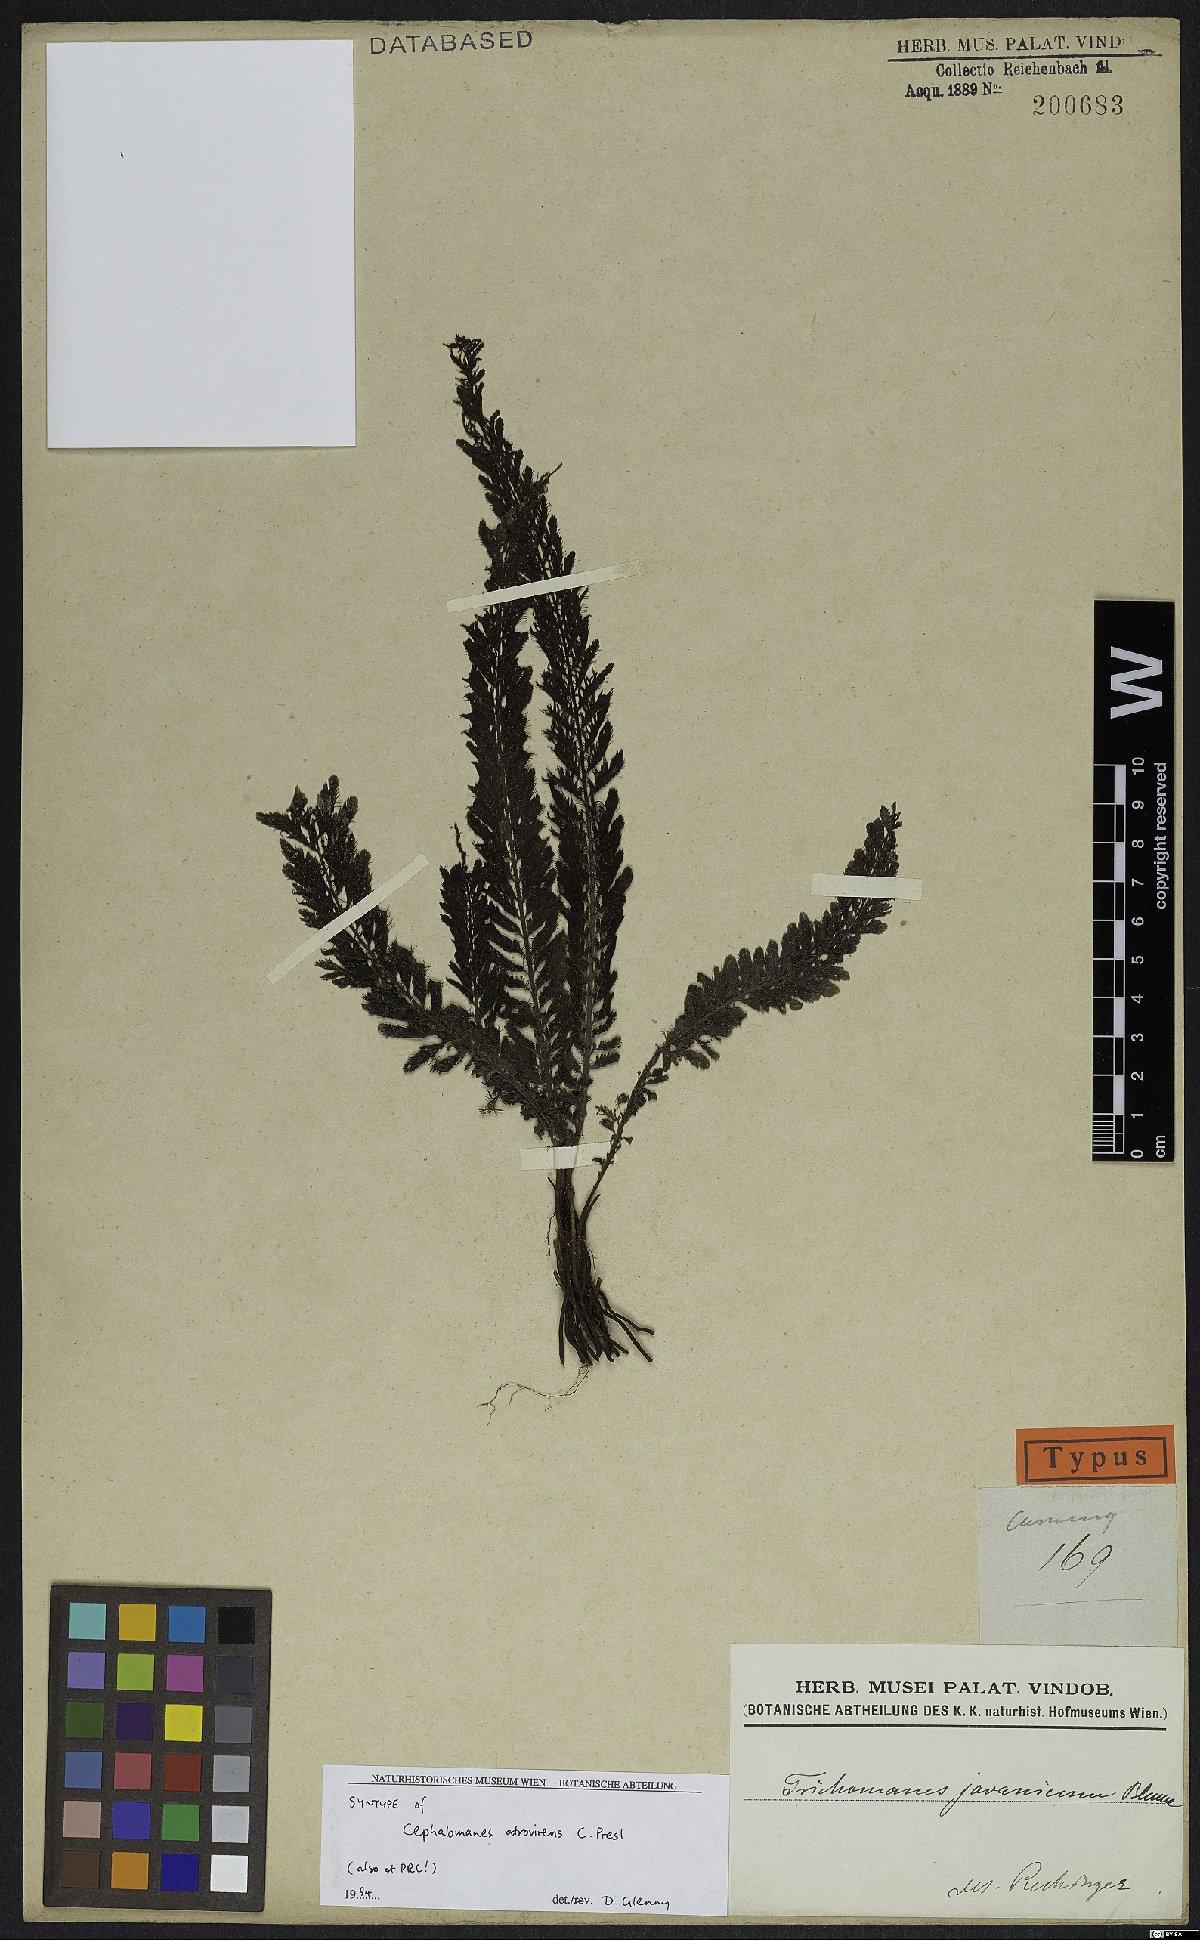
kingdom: Plantae
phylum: Tracheophyta
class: Polypodiopsida
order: Hymenophyllales
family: Hymenophyllaceae
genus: Cephalomanes
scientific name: Cephalomanes atrovirens
